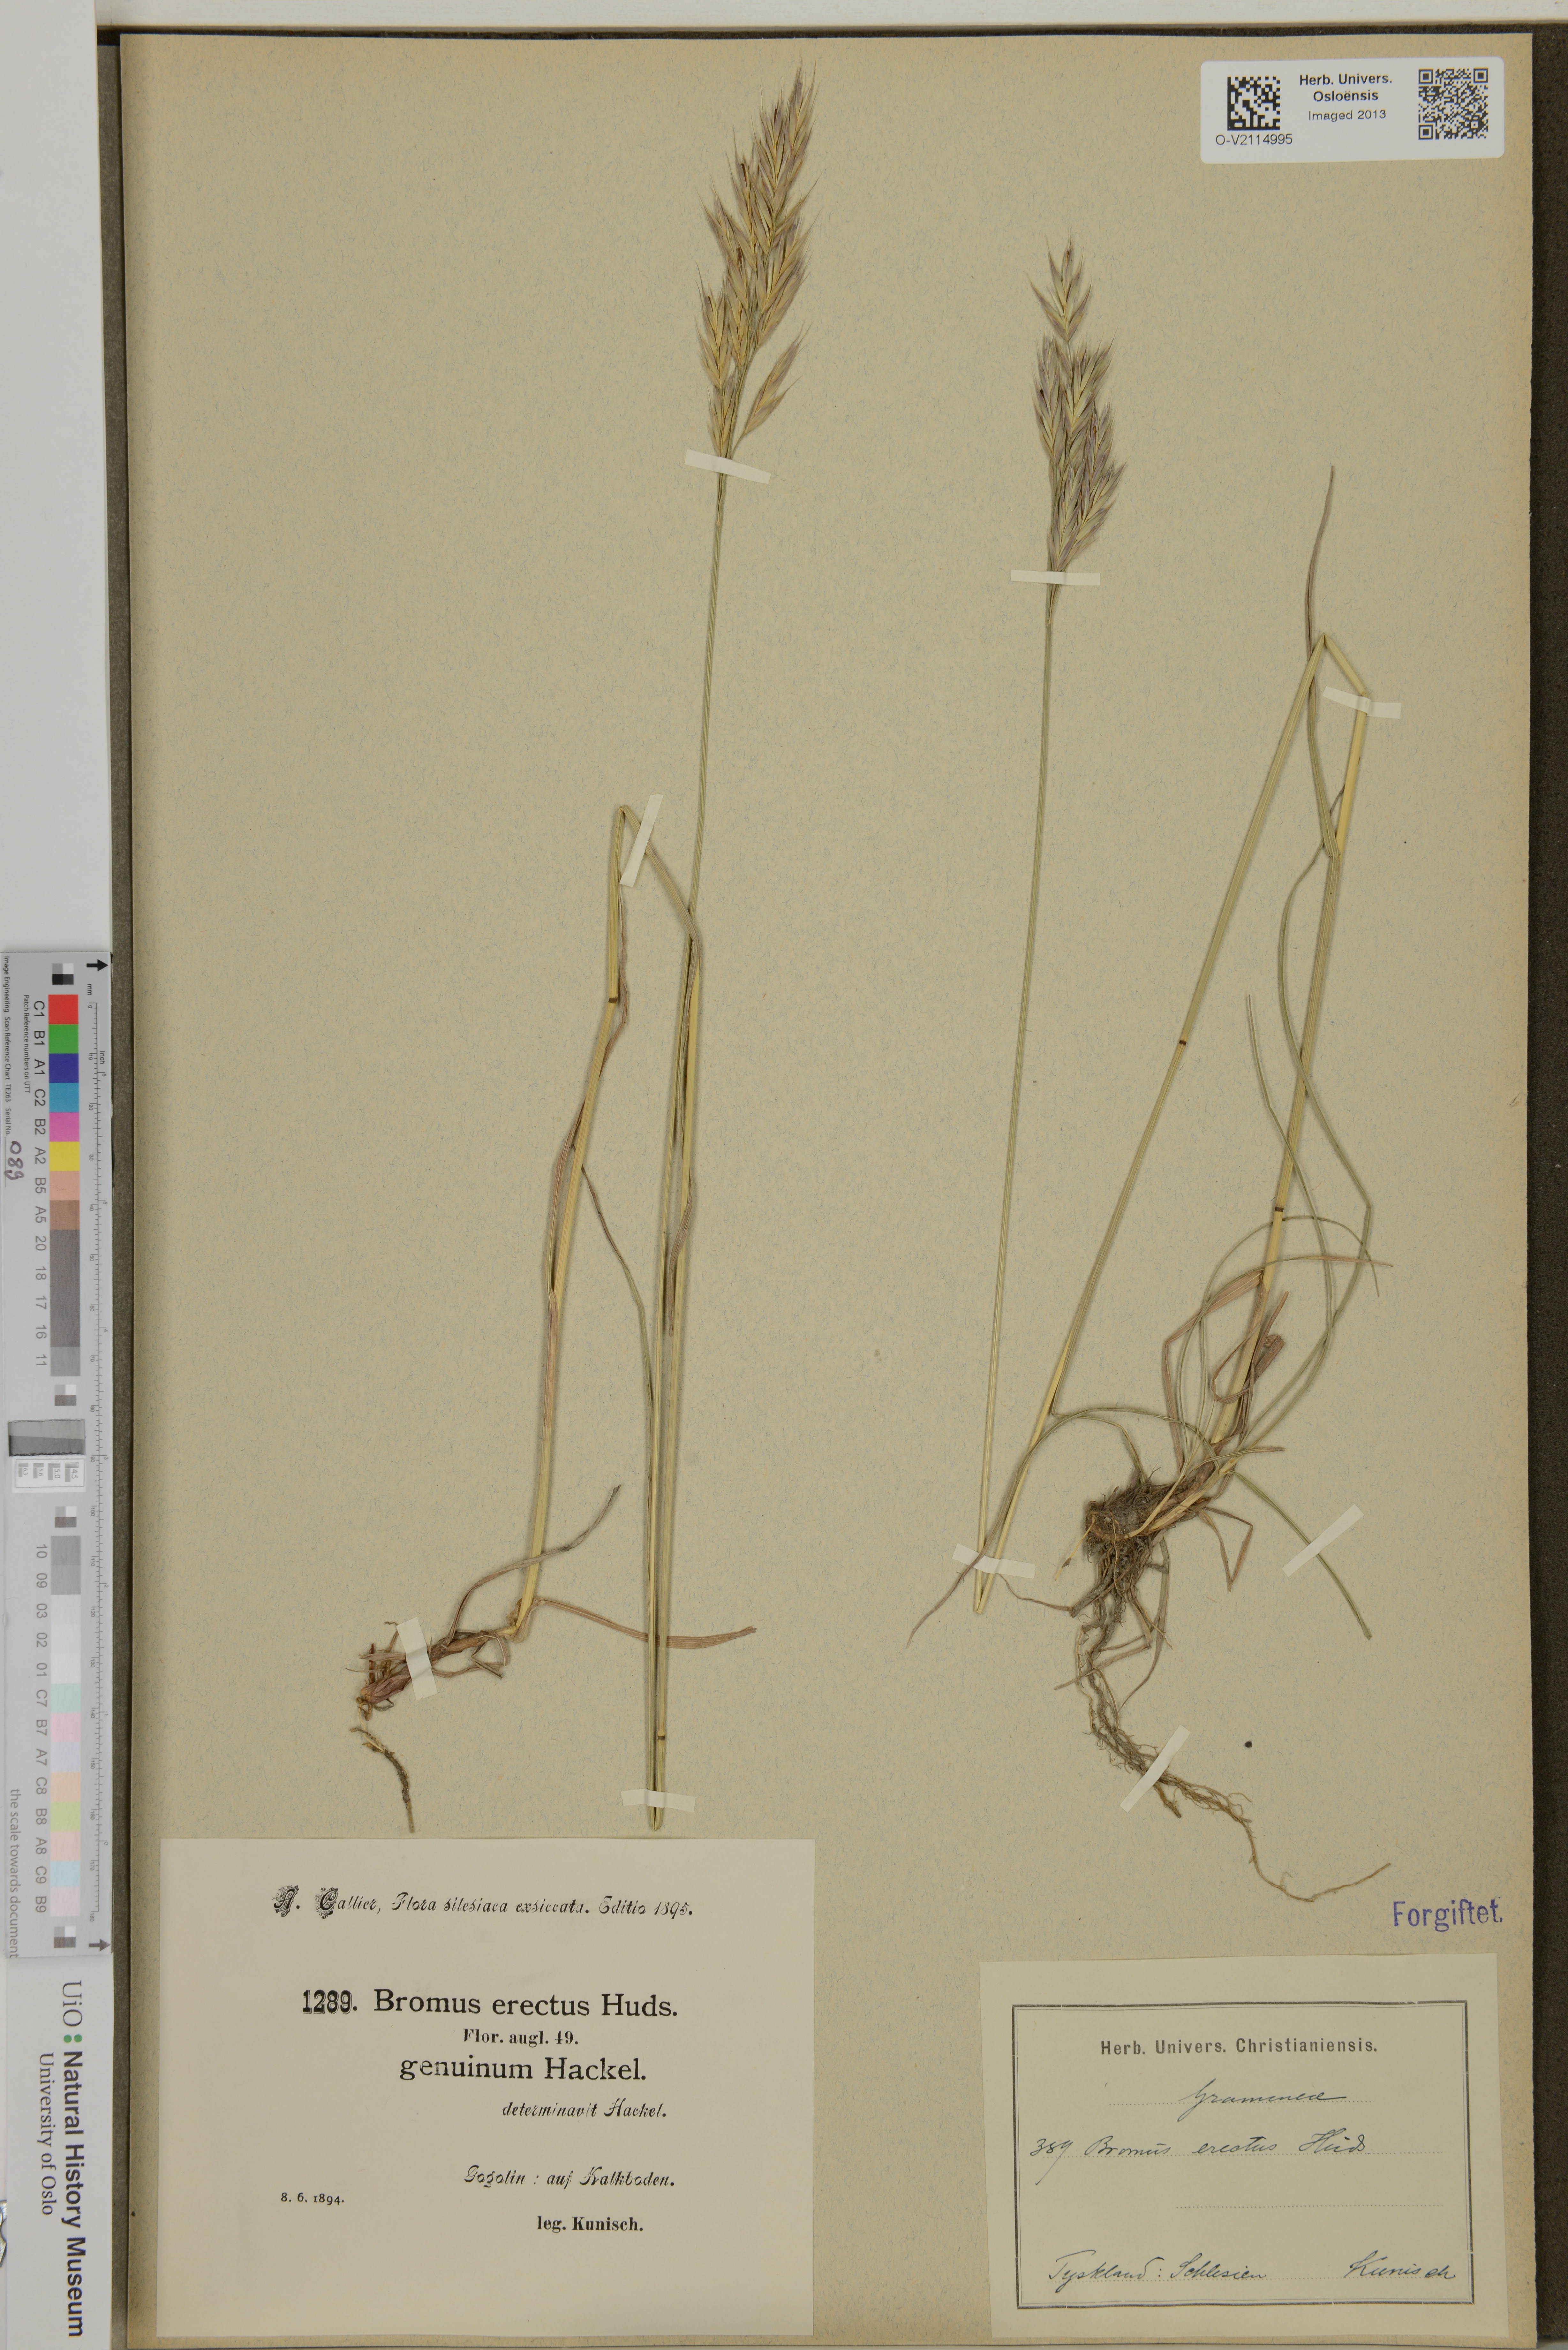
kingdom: Plantae
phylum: Tracheophyta
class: Liliopsida
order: Poales
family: Poaceae
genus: Bromus
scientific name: Bromus erectus
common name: Erect brome
